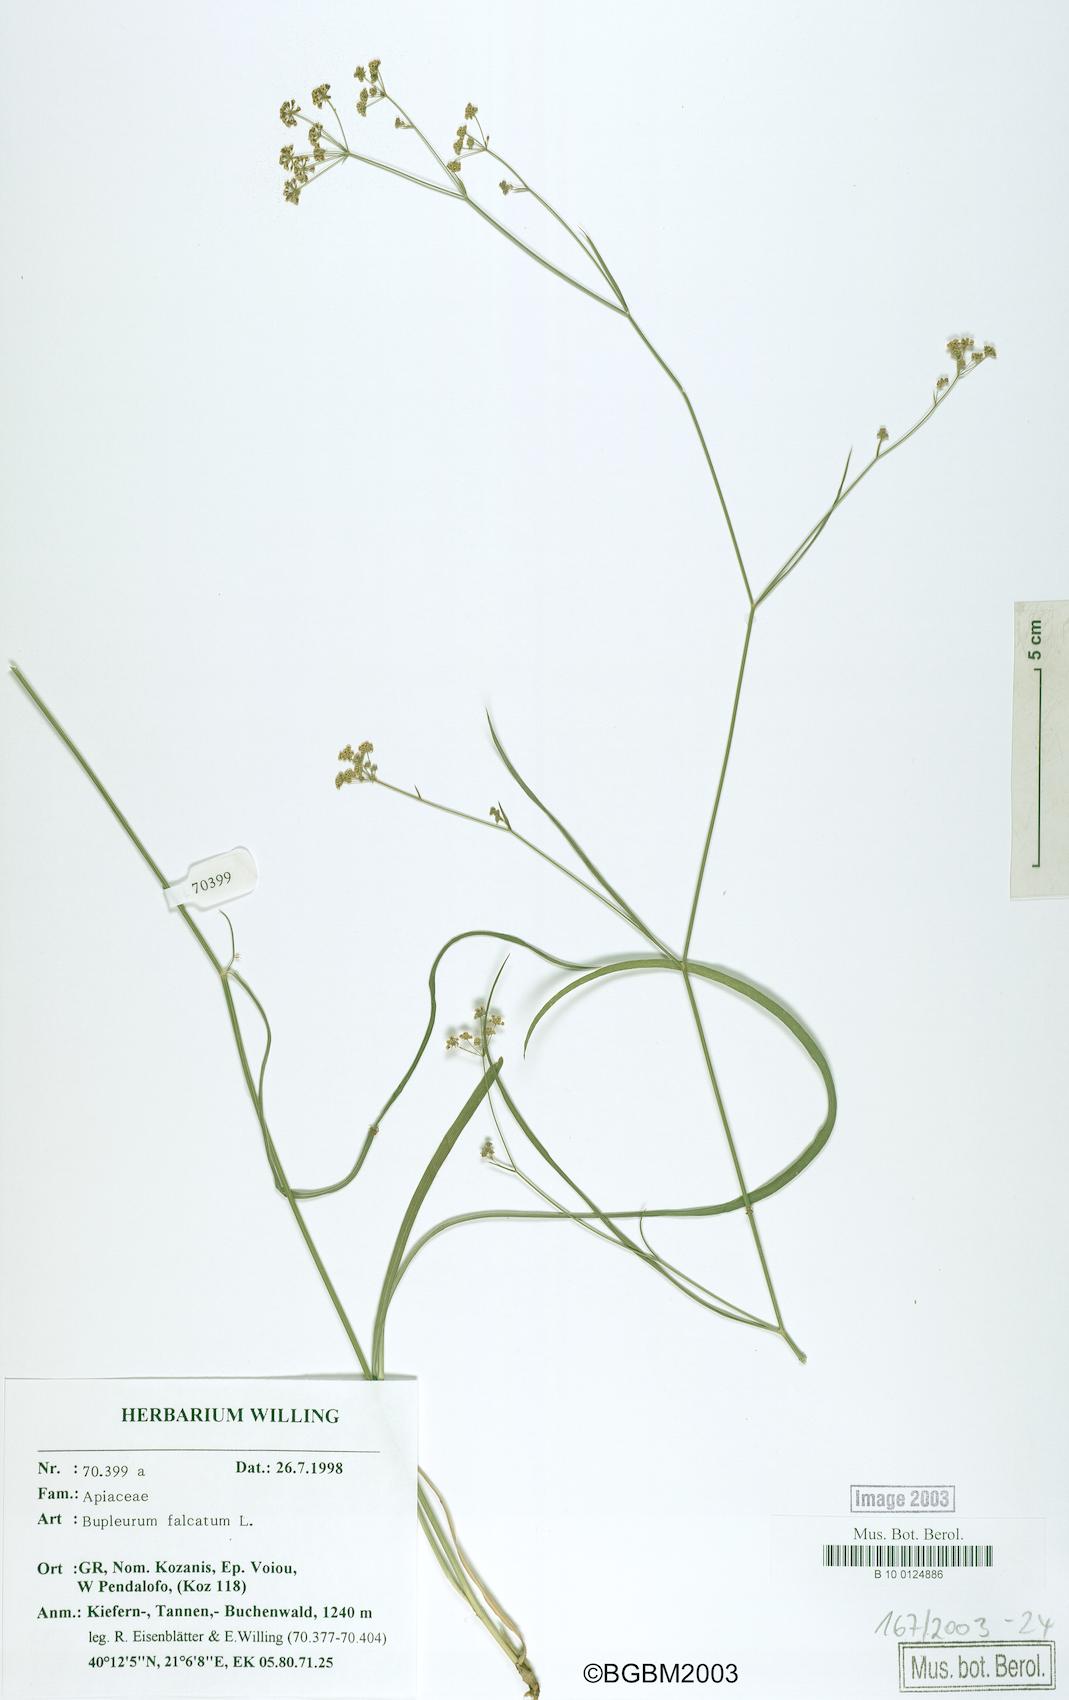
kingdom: Plantae
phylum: Tracheophyta
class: Magnoliopsida
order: Apiales
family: Apiaceae
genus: Bupleurum
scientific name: Bupleurum falcatum
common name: Sickle-leaved hare's-ear
